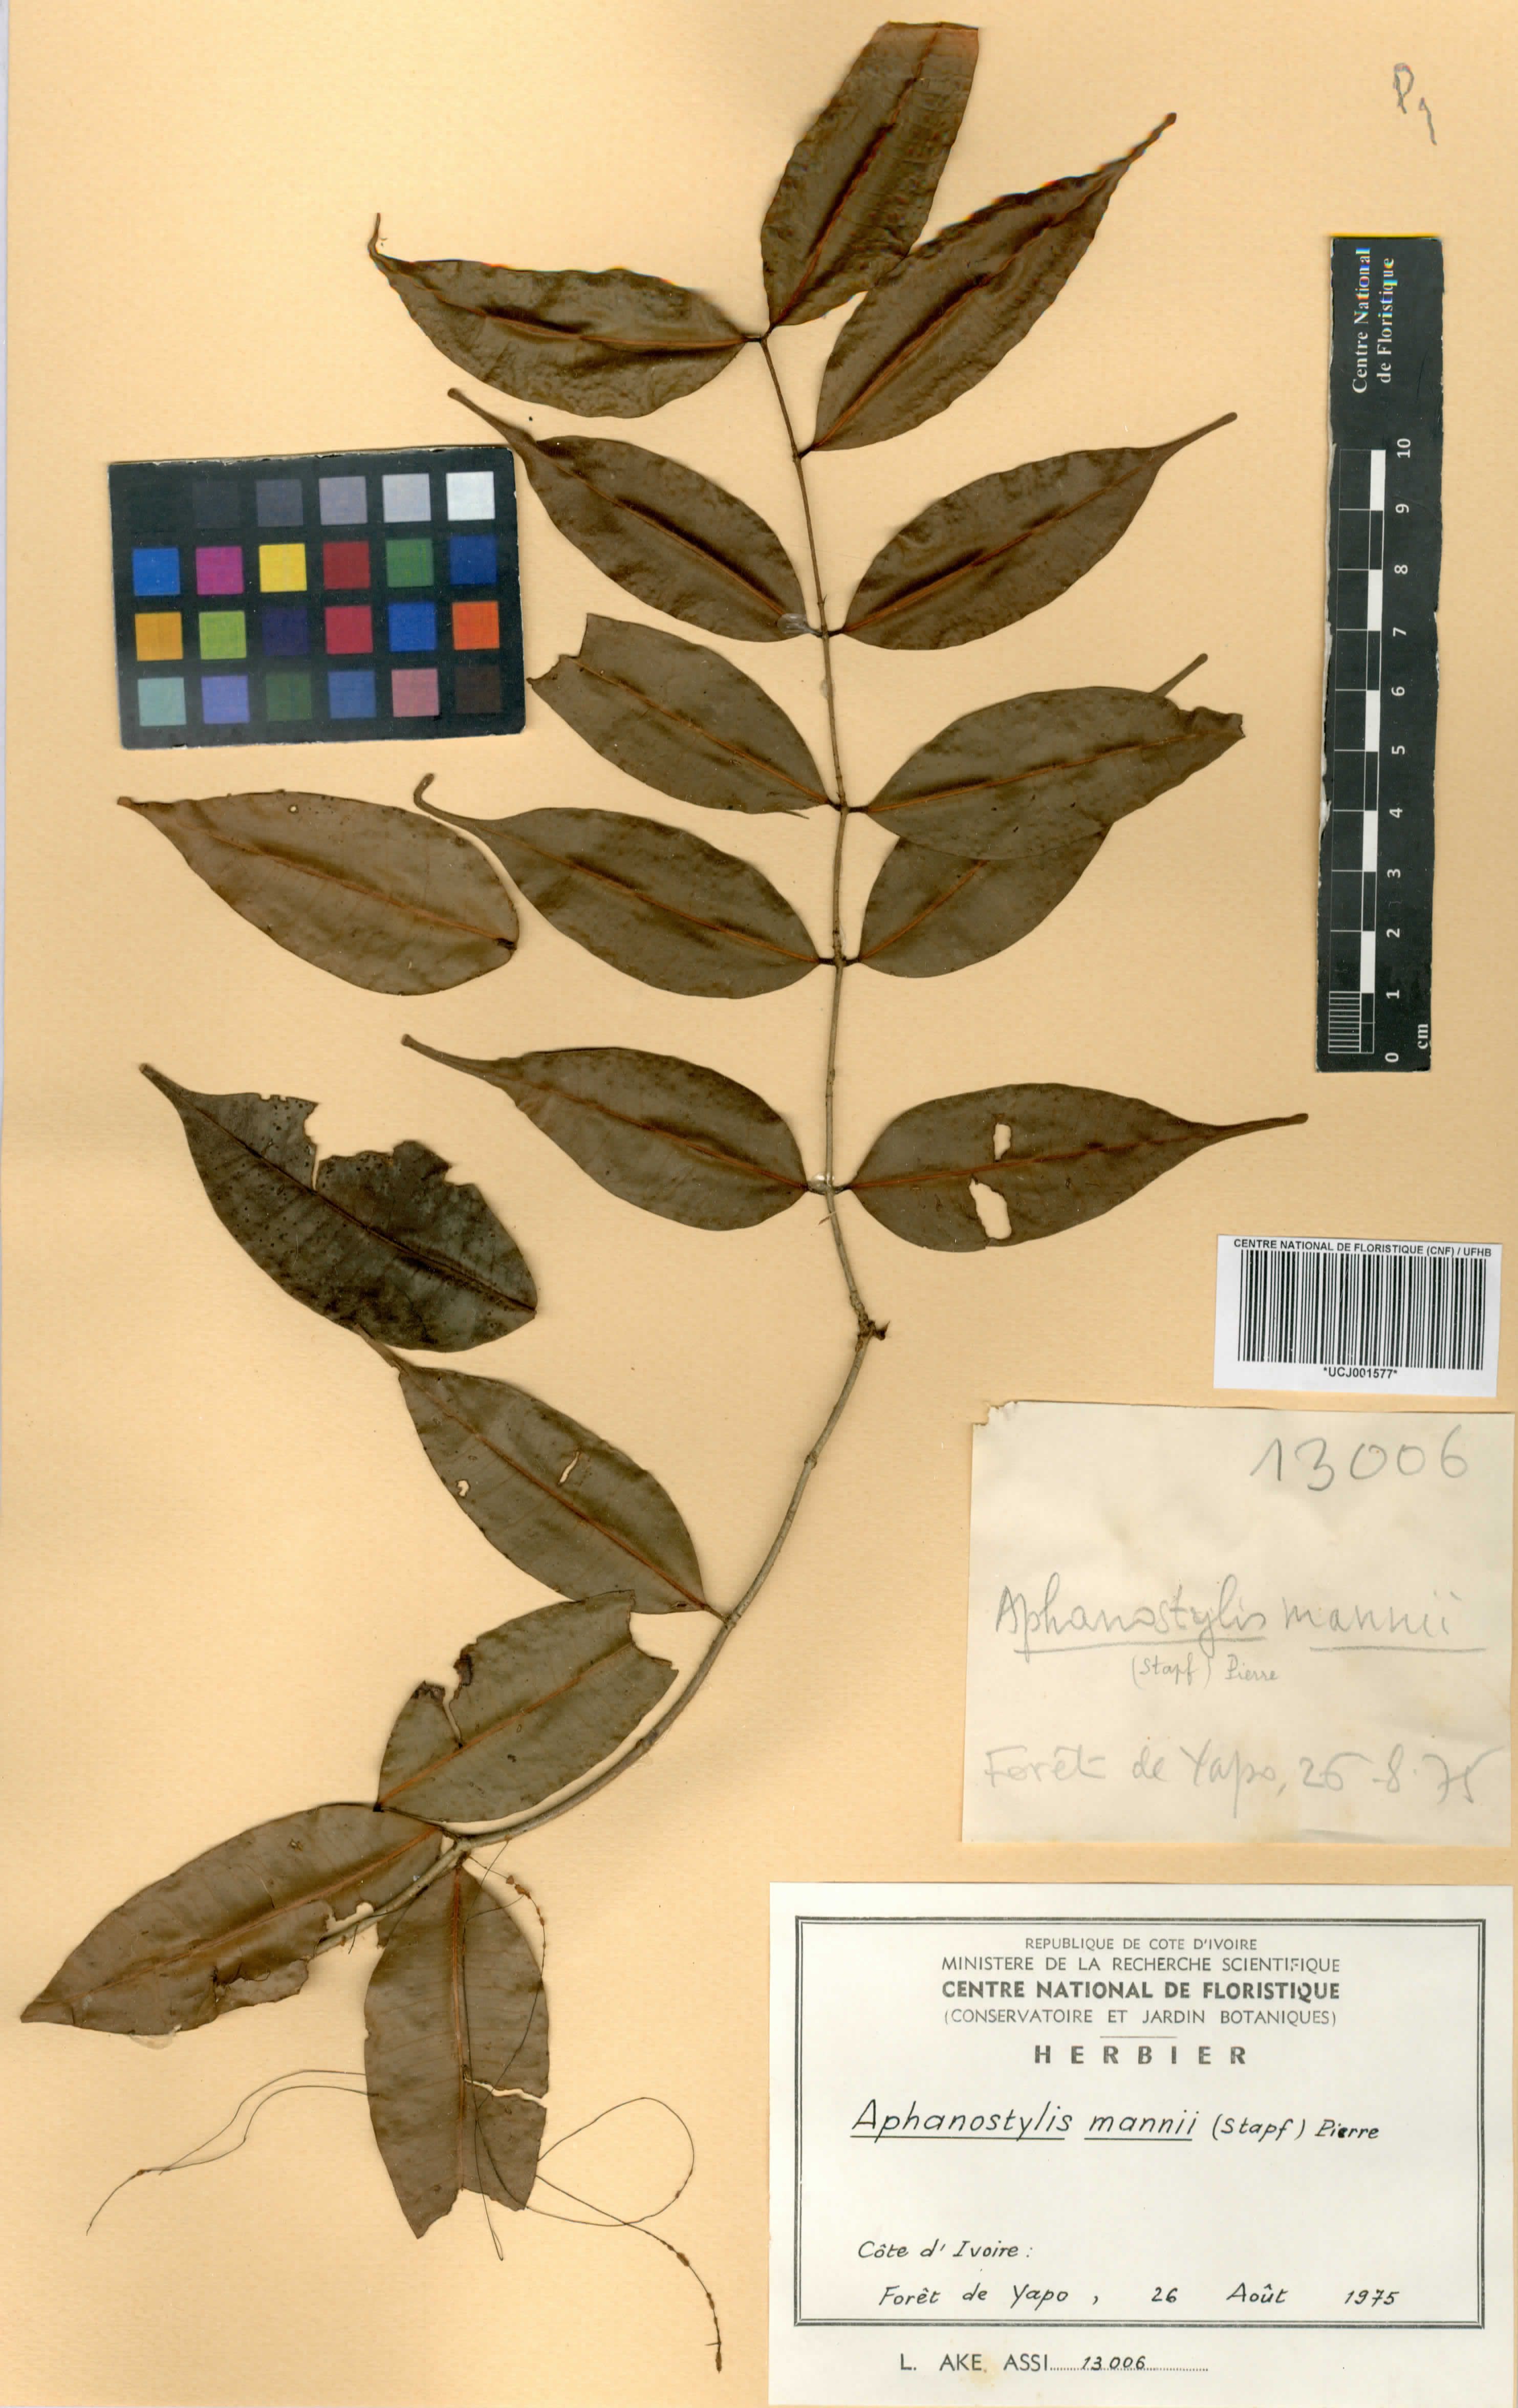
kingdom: Plantae
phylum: Tracheophyta
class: Magnoliopsida
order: Gentianales
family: Apocynaceae
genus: Landolphia
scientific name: Landolphia incerta
